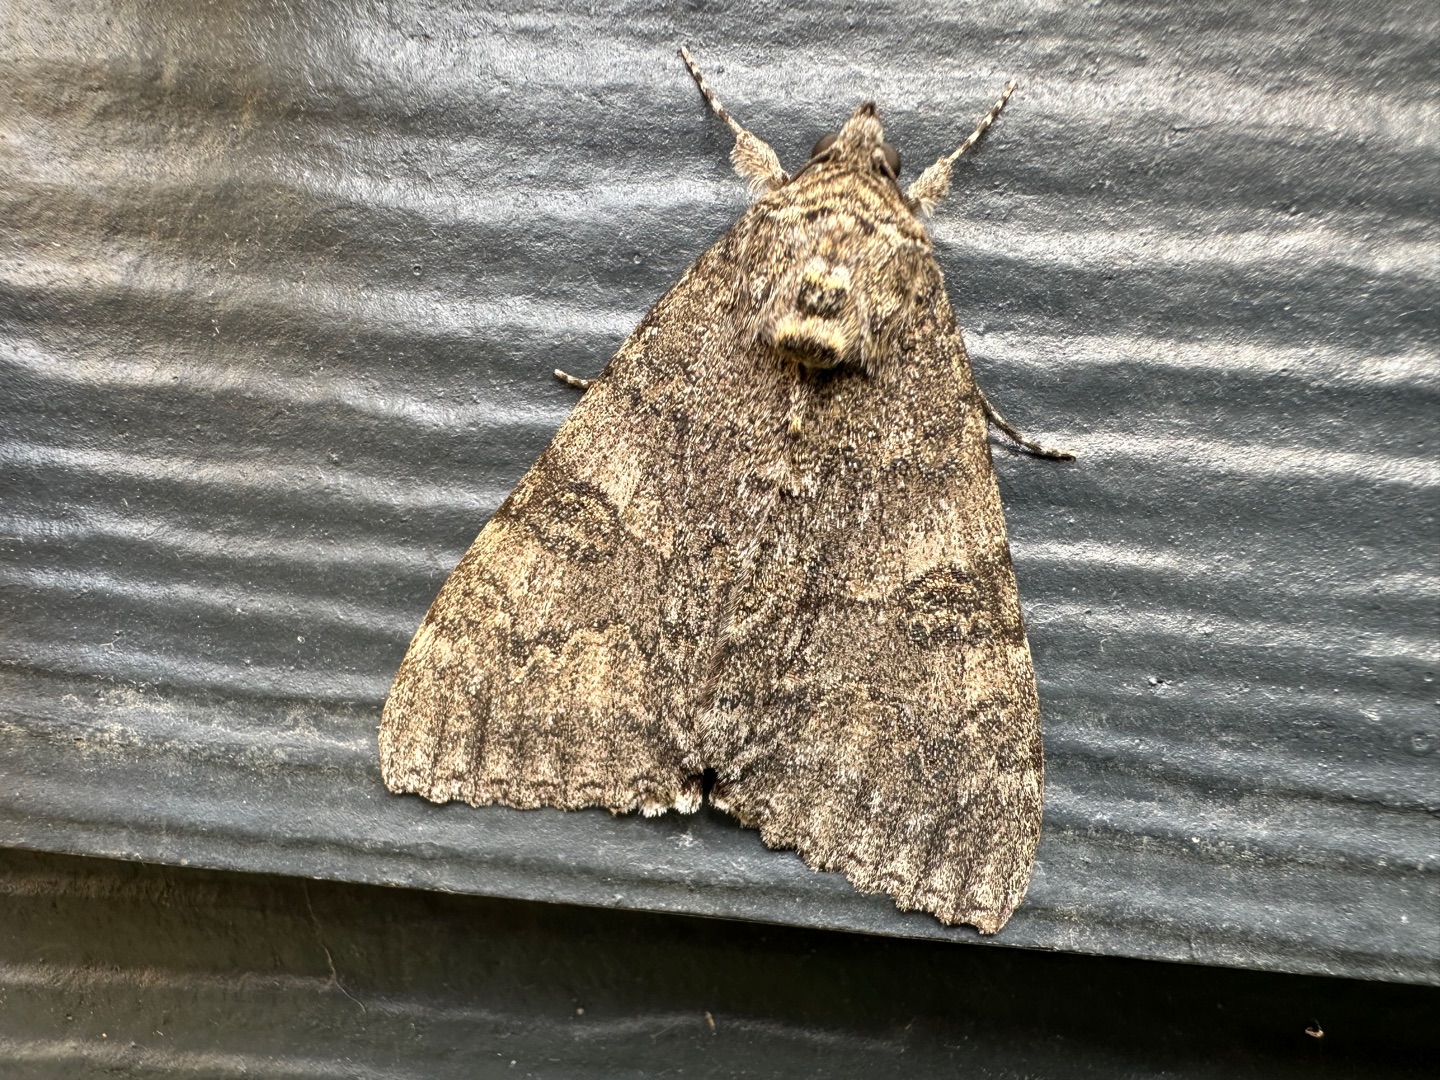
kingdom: Animalia
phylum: Arthropoda
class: Insecta
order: Lepidoptera
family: Erebidae
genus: Catocala
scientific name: Catocala nupta
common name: Rødt ordensbånd
